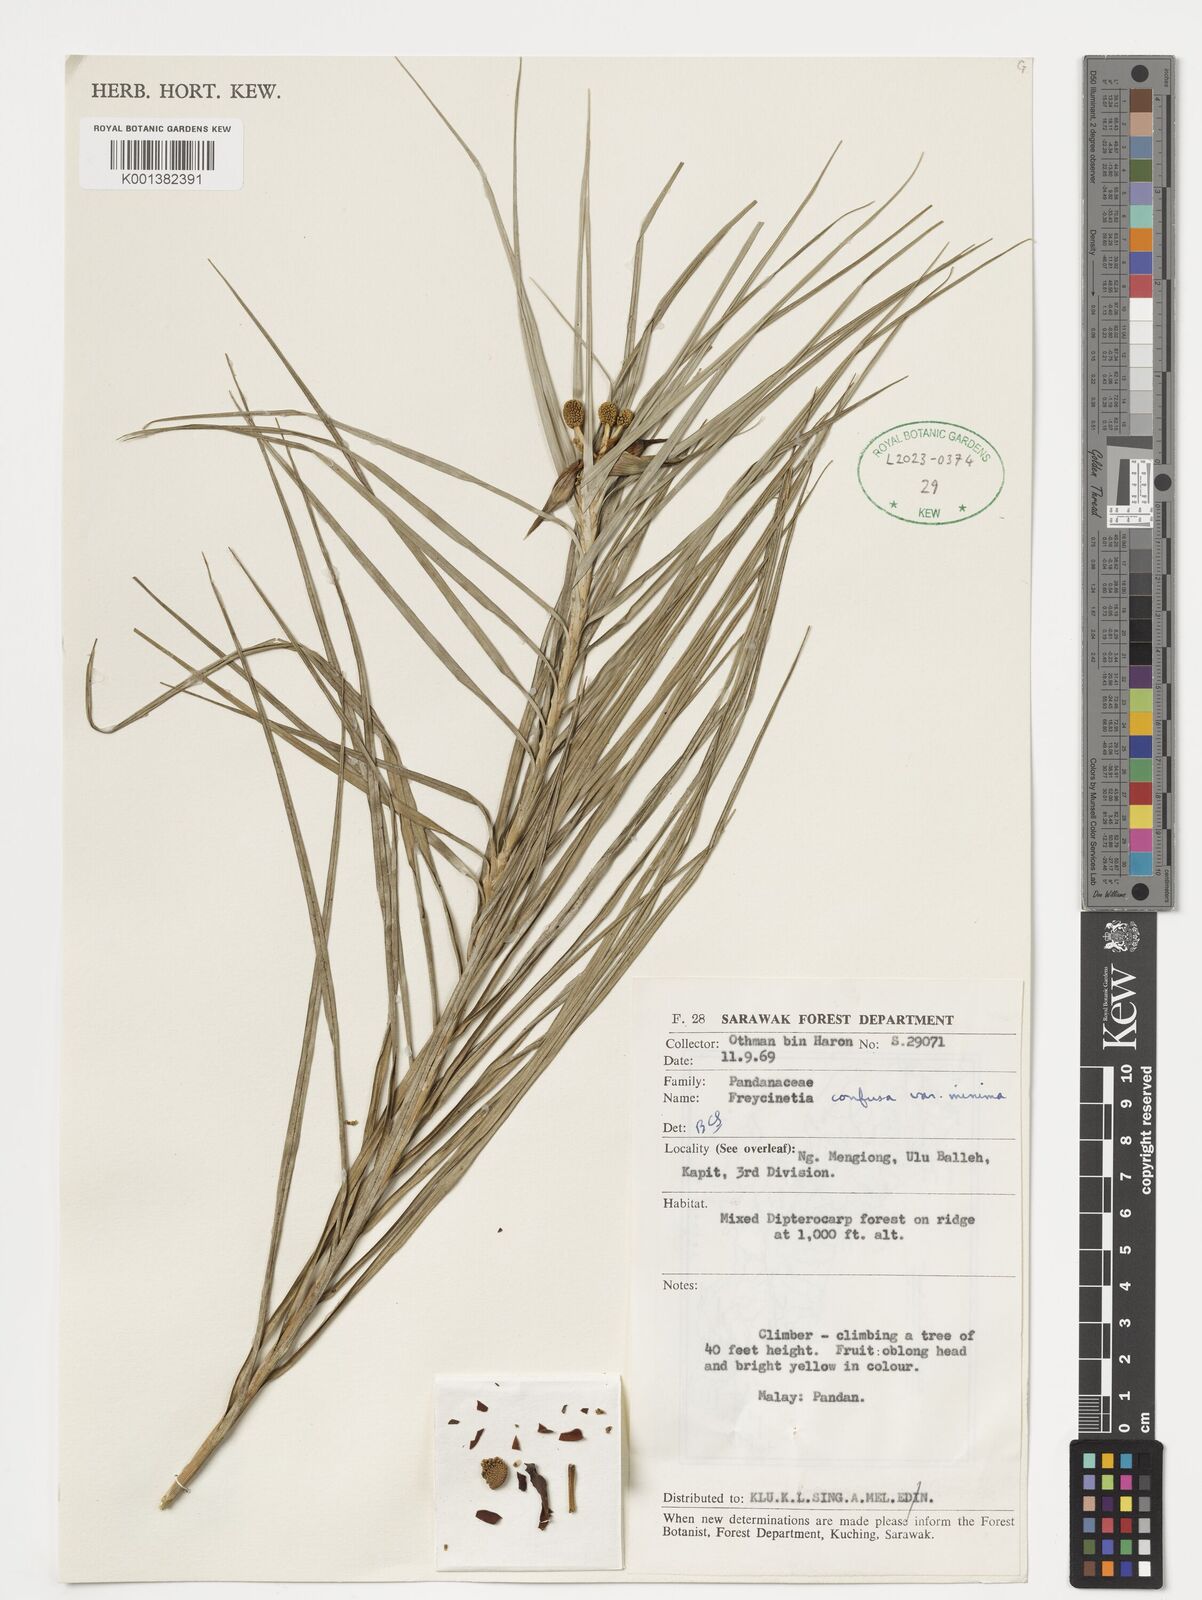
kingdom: Plantae
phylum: Tracheophyta
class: Liliopsida
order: Pandanales
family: Pandanaceae
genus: Freycinetia
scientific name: Freycinetia confusa
